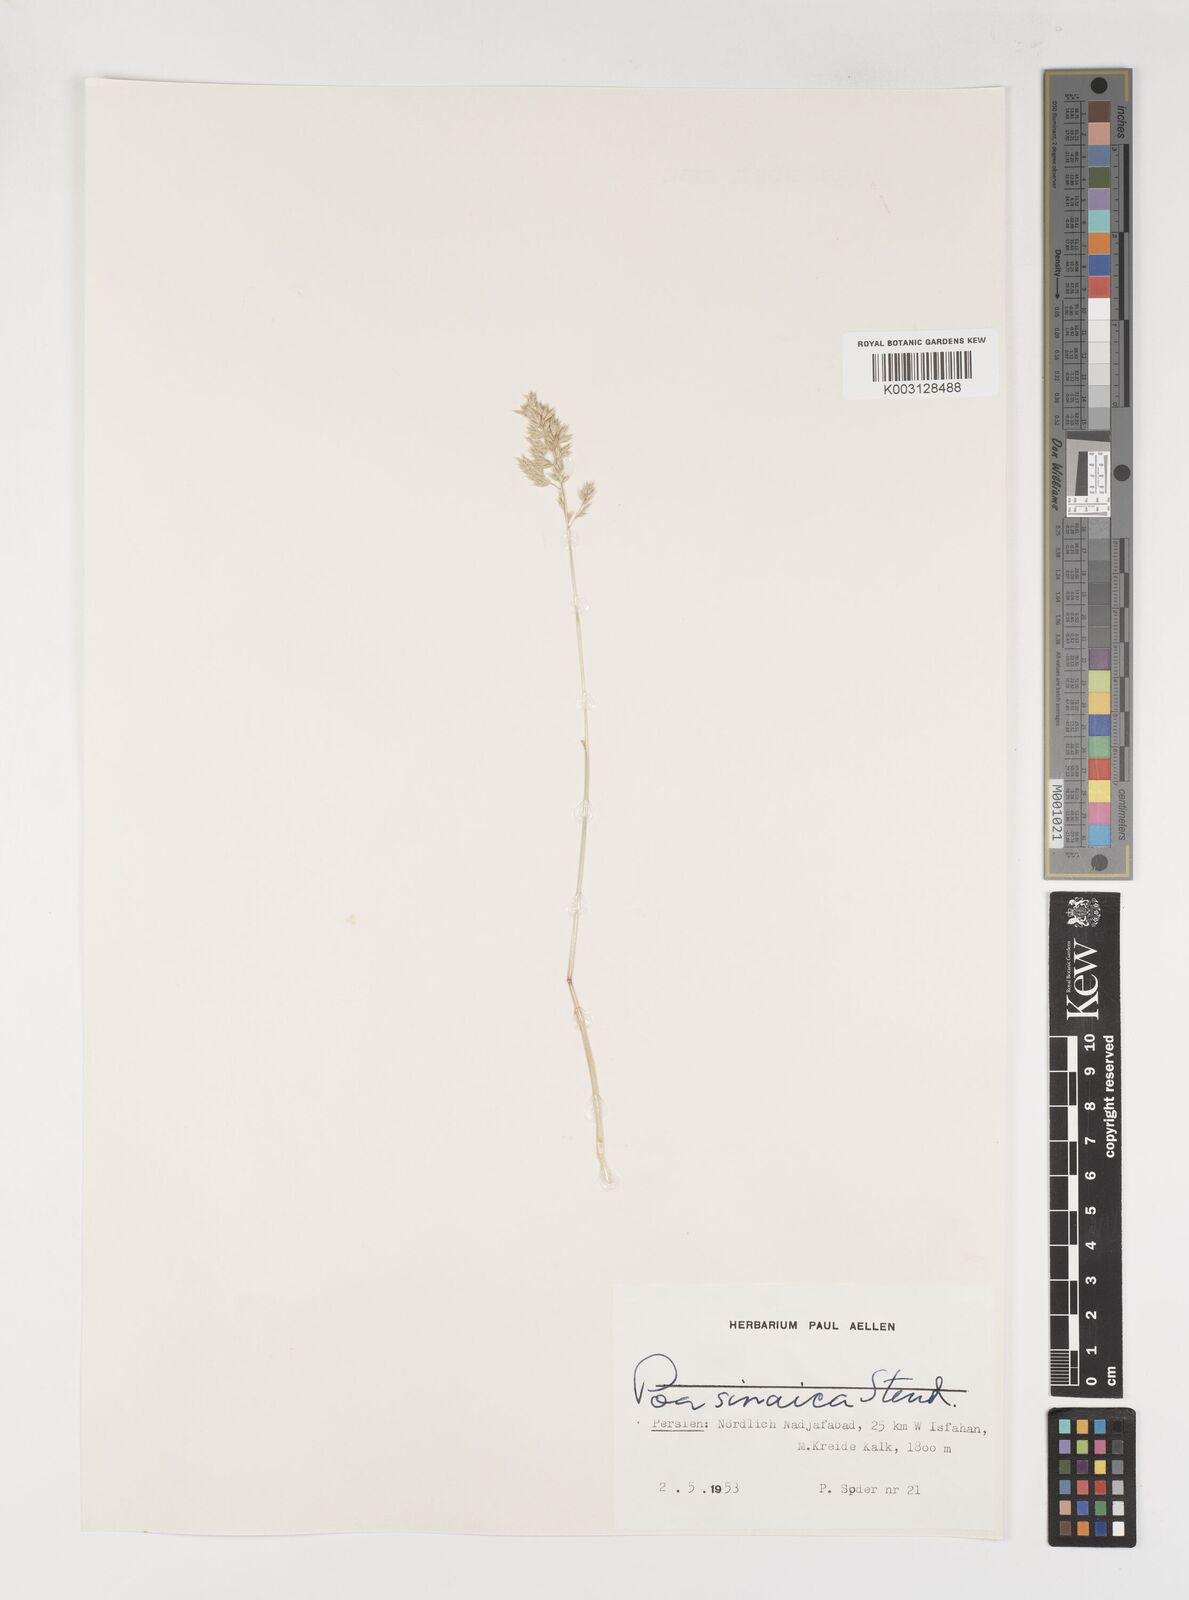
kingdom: Plantae
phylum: Tracheophyta
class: Liliopsida
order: Poales
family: Poaceae
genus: Poa
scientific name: Poa sinaica
